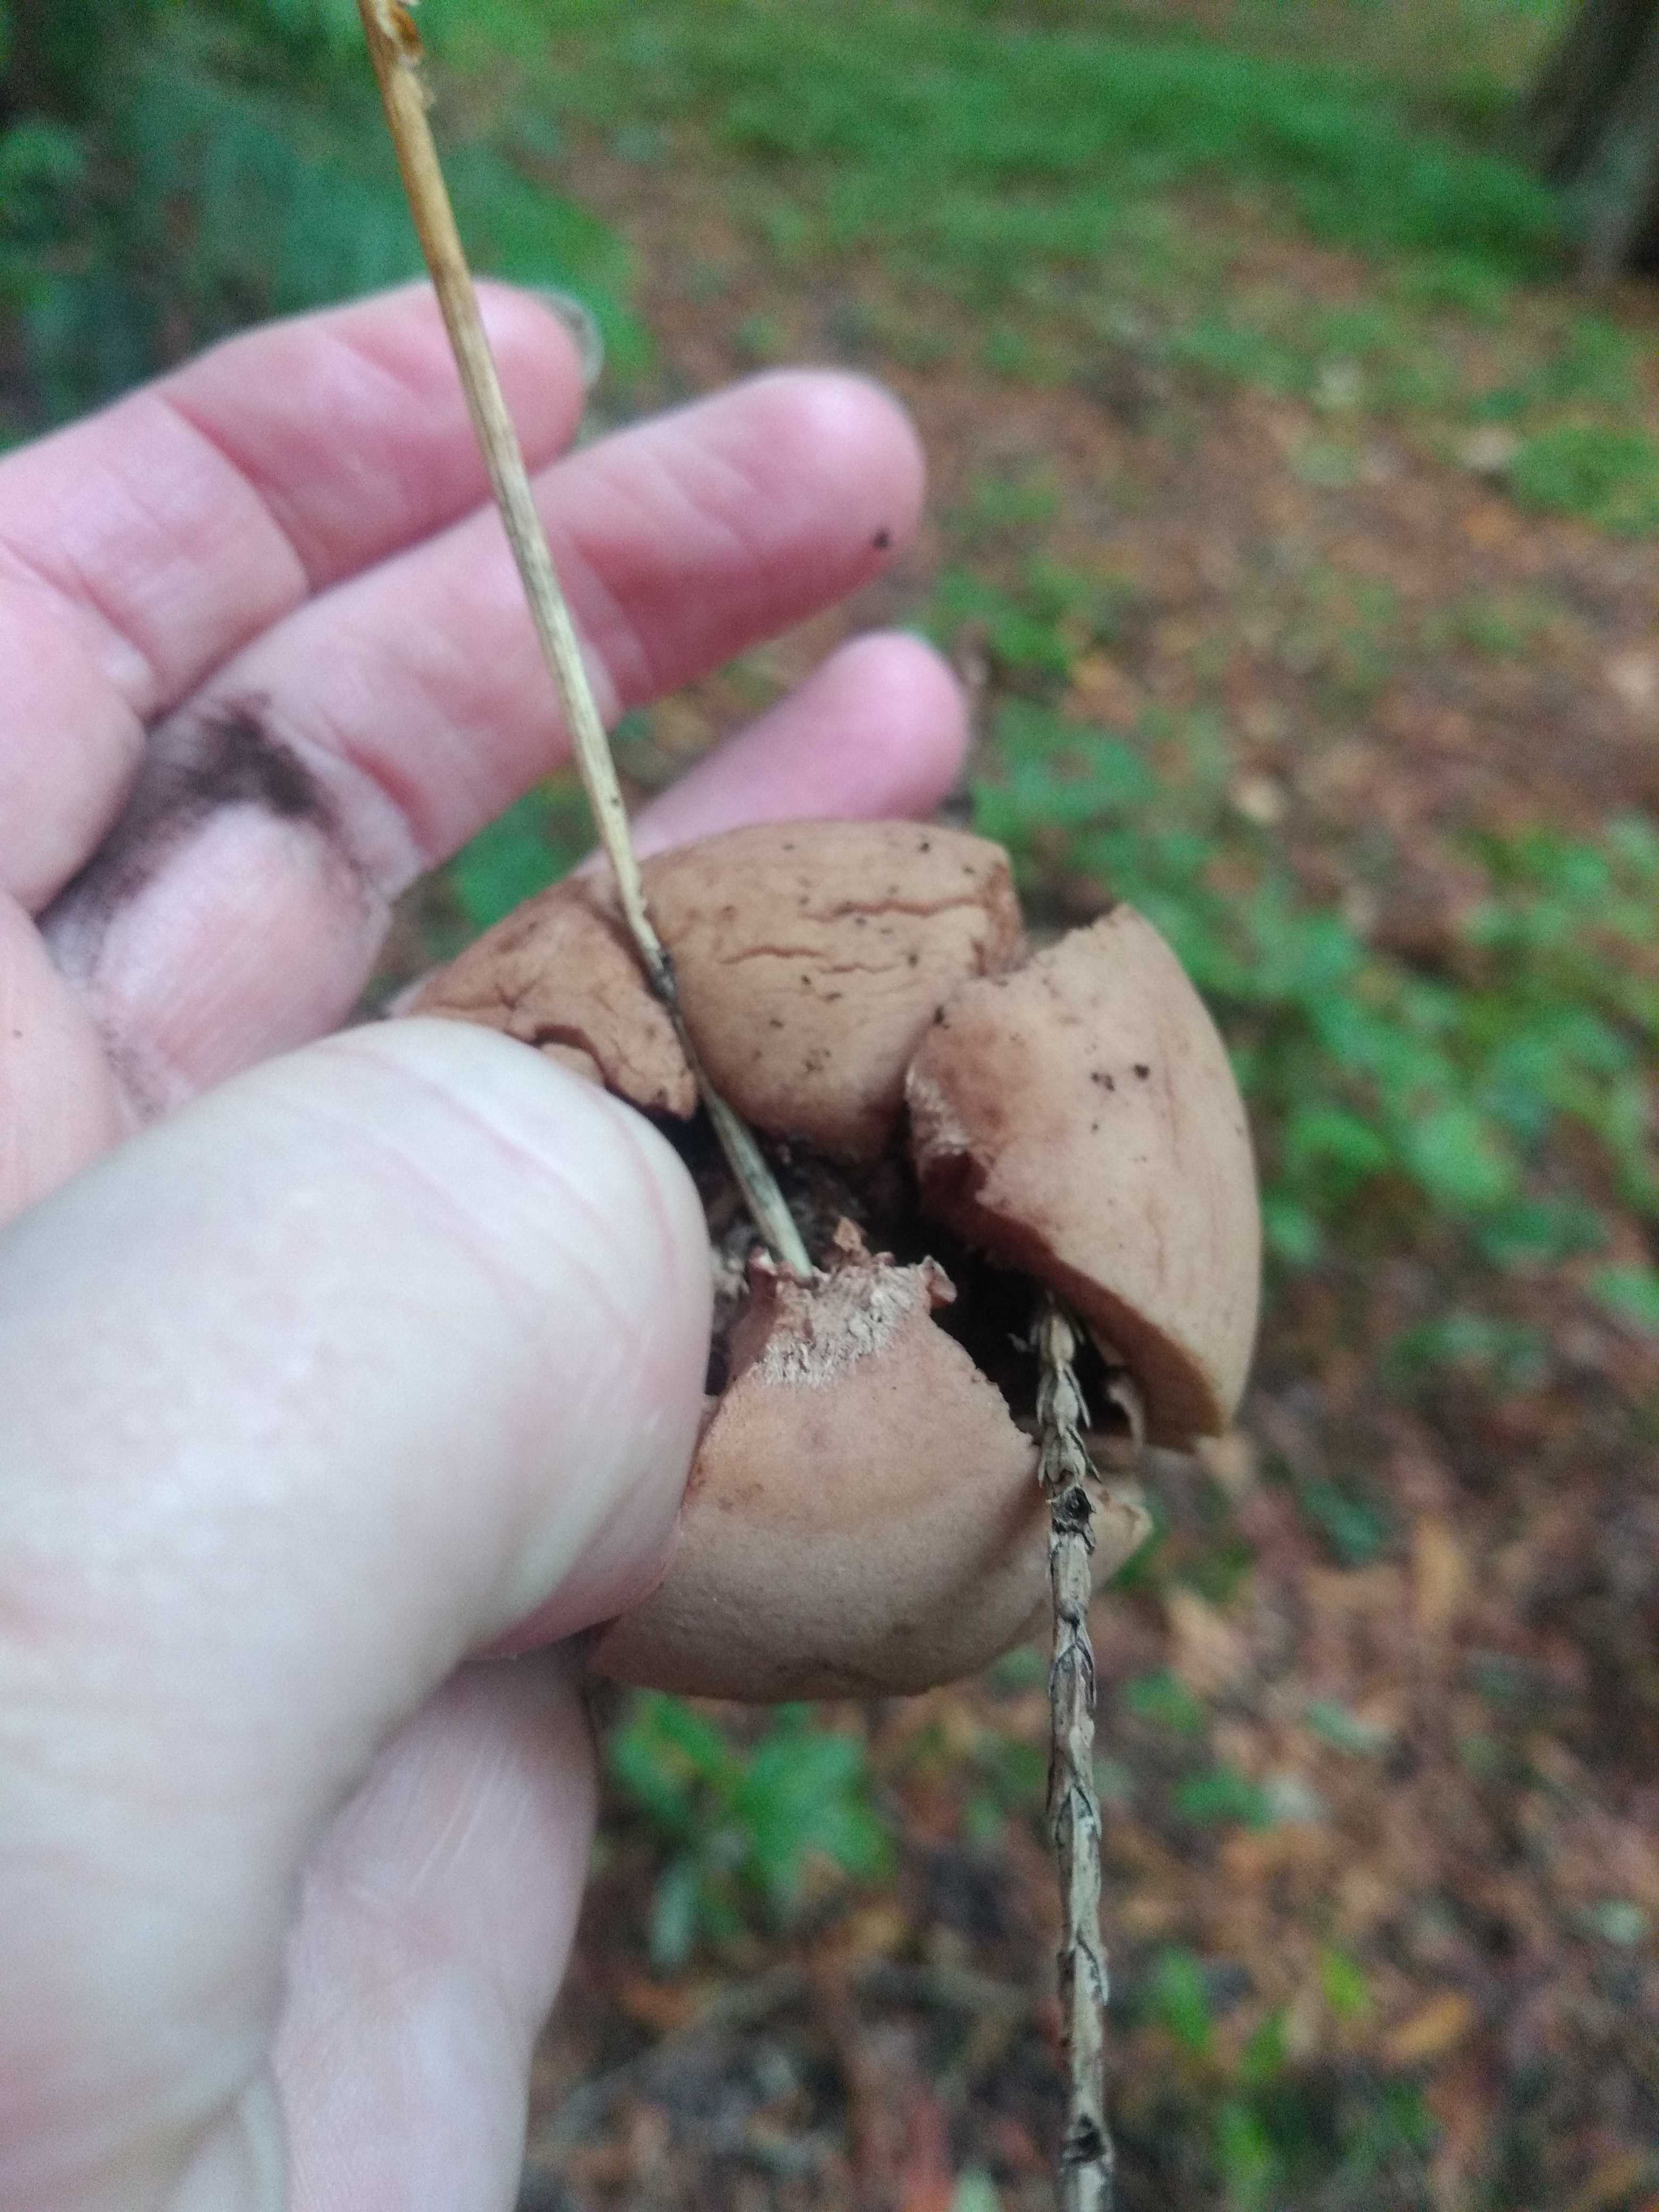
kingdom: Fungi
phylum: Basidiomycota
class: Agaricomycetes
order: Geastrales
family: Geastraceae
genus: Geastrum
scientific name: Geastrum michelianum
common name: kødet stjernebold
